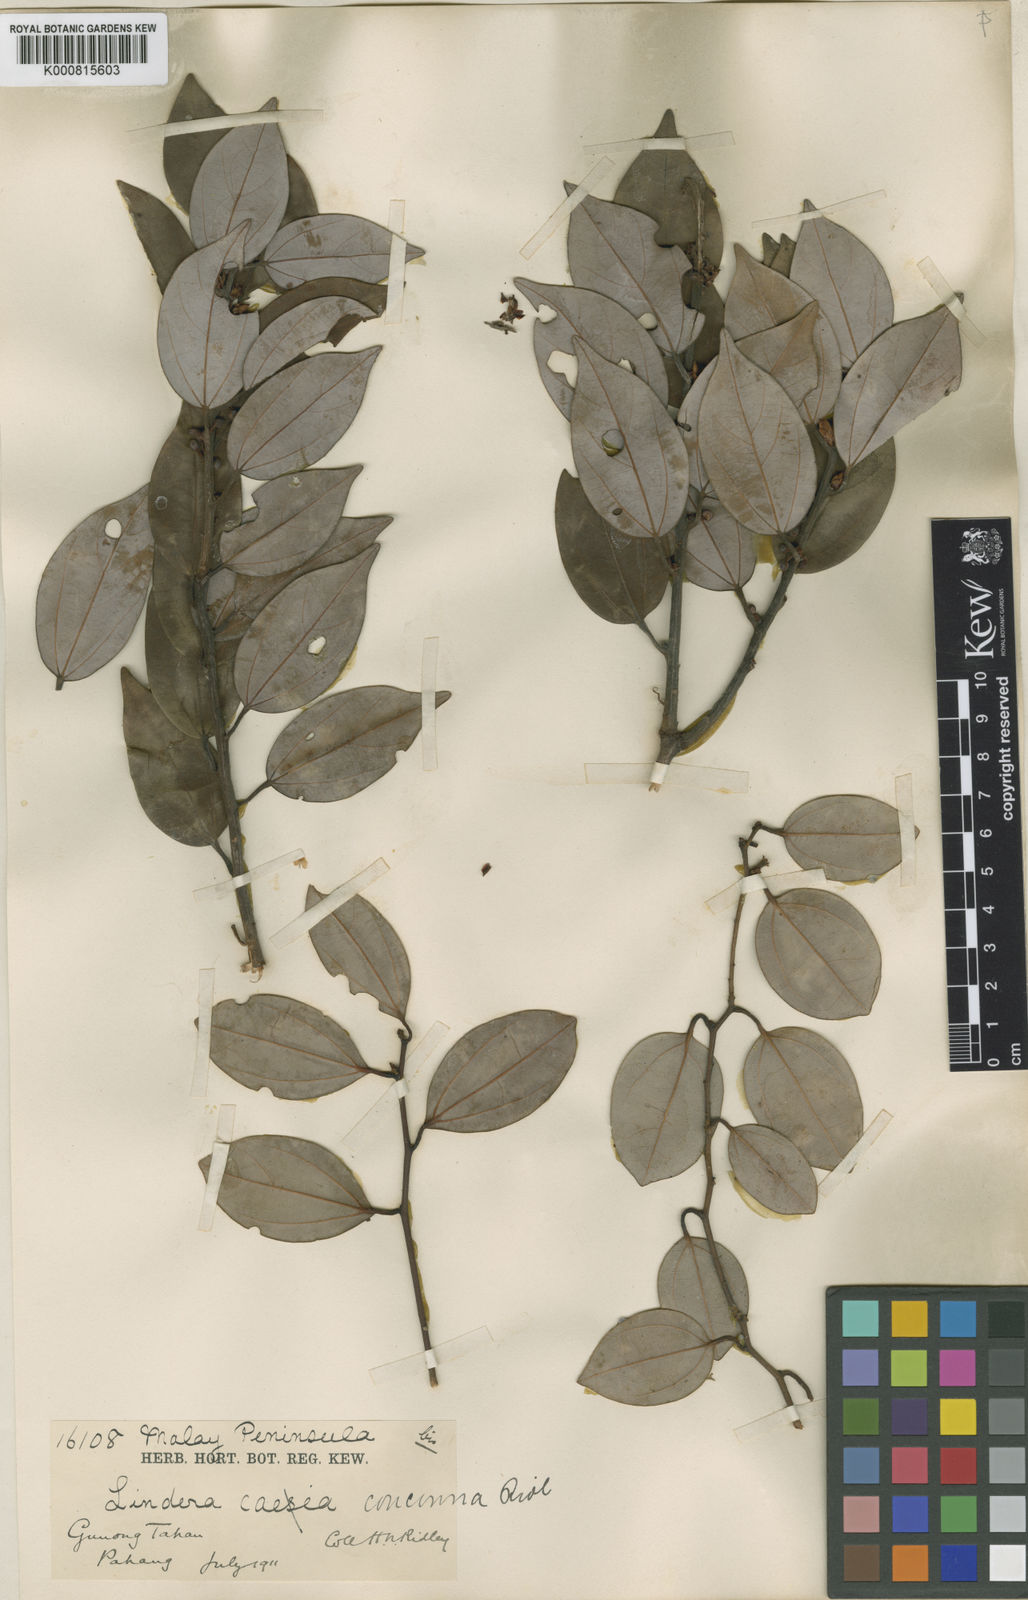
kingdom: Plantae
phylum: Tracheophyta
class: Magnoliopsida
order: Laurales
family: Lauraceae
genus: Lindera
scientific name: Lindera concinna
